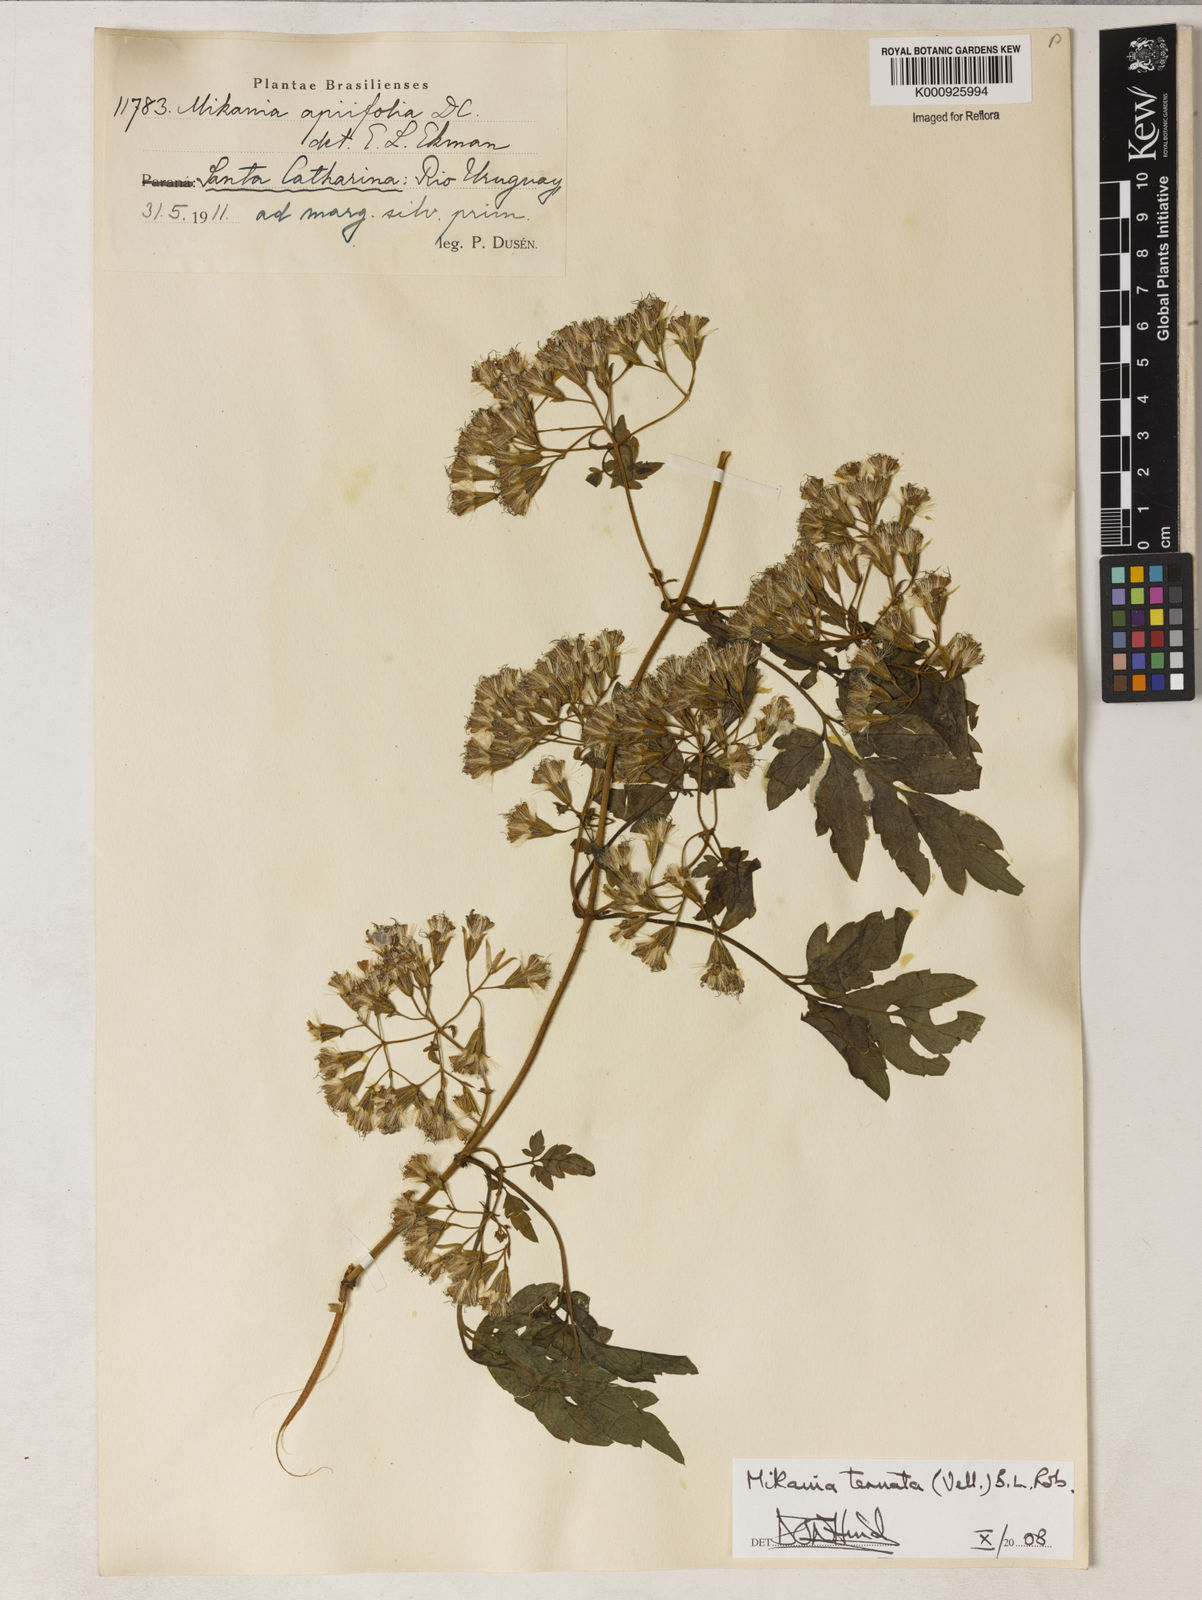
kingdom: Plantae
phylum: Tracheophyta
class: Magnoliopsida
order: Asterales
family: Asteraceae
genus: Mikania
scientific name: Mikania ternata
